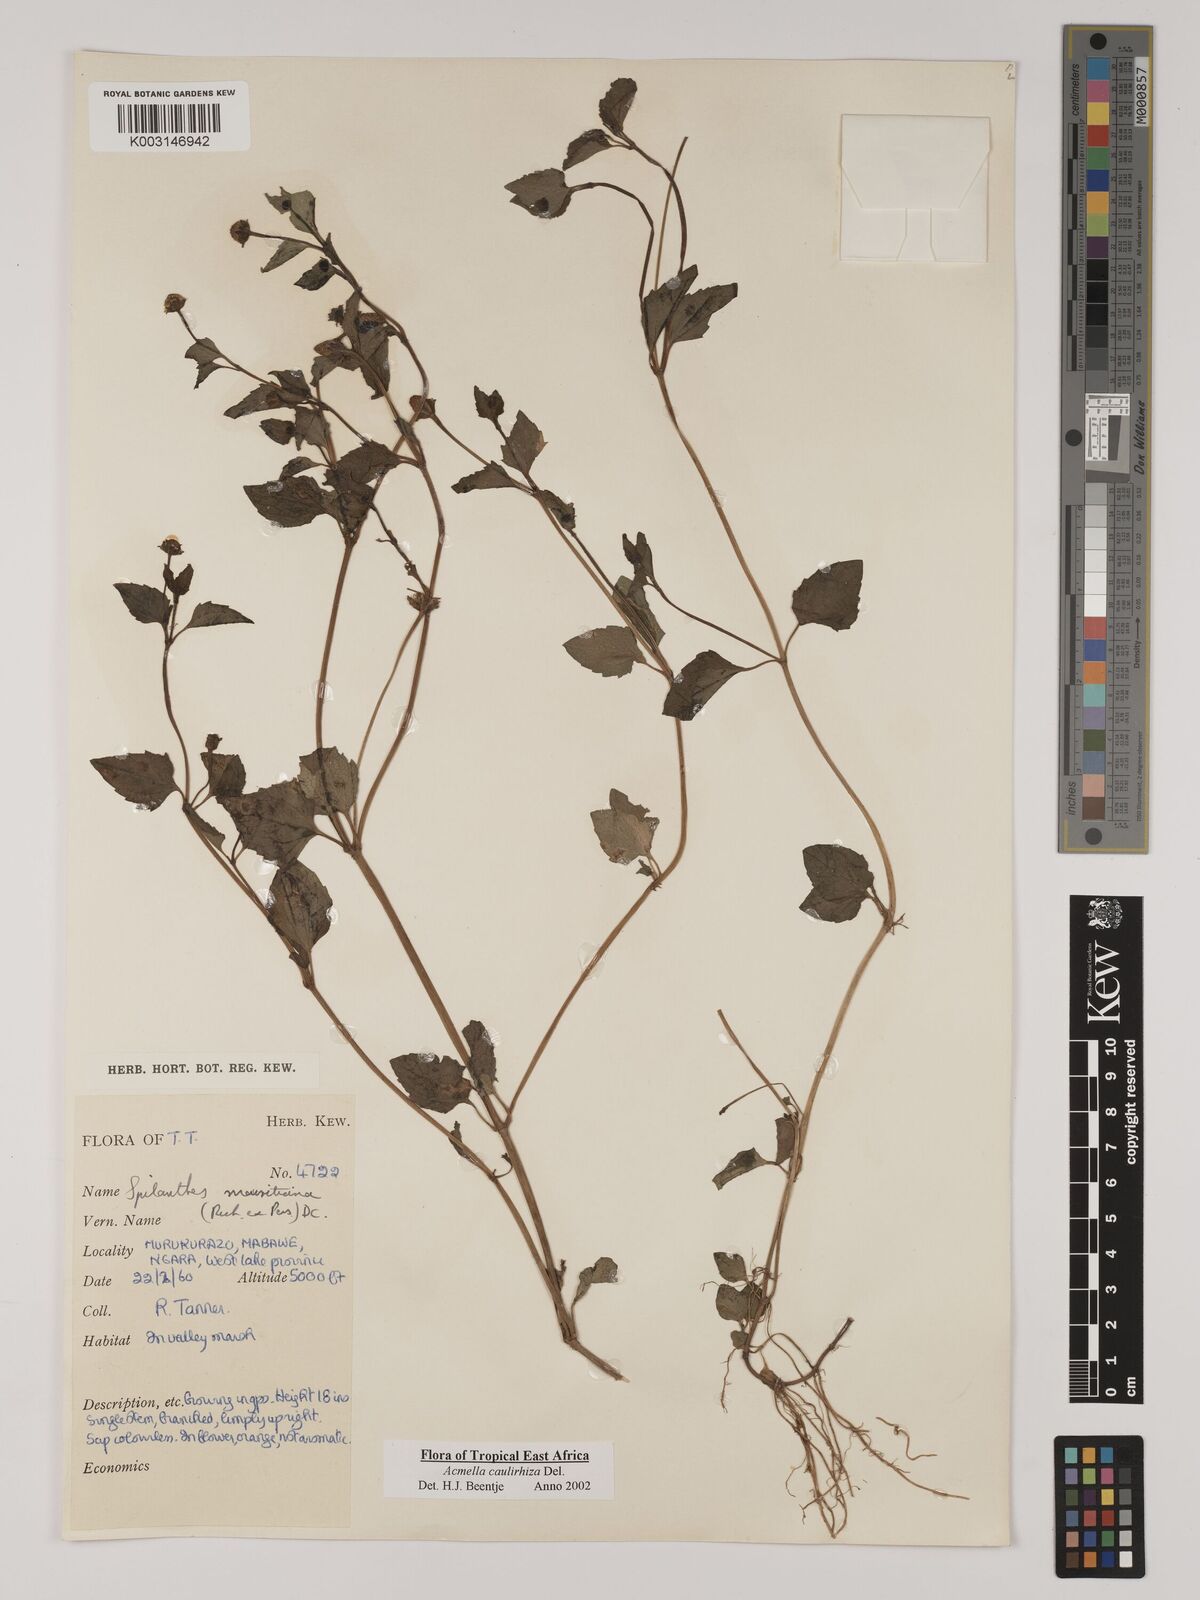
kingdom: Plantae
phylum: Tracheophyta
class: Magnoliopsida
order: Asterales
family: Asteraceae
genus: Acmella
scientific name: Acmella caulirhiza
